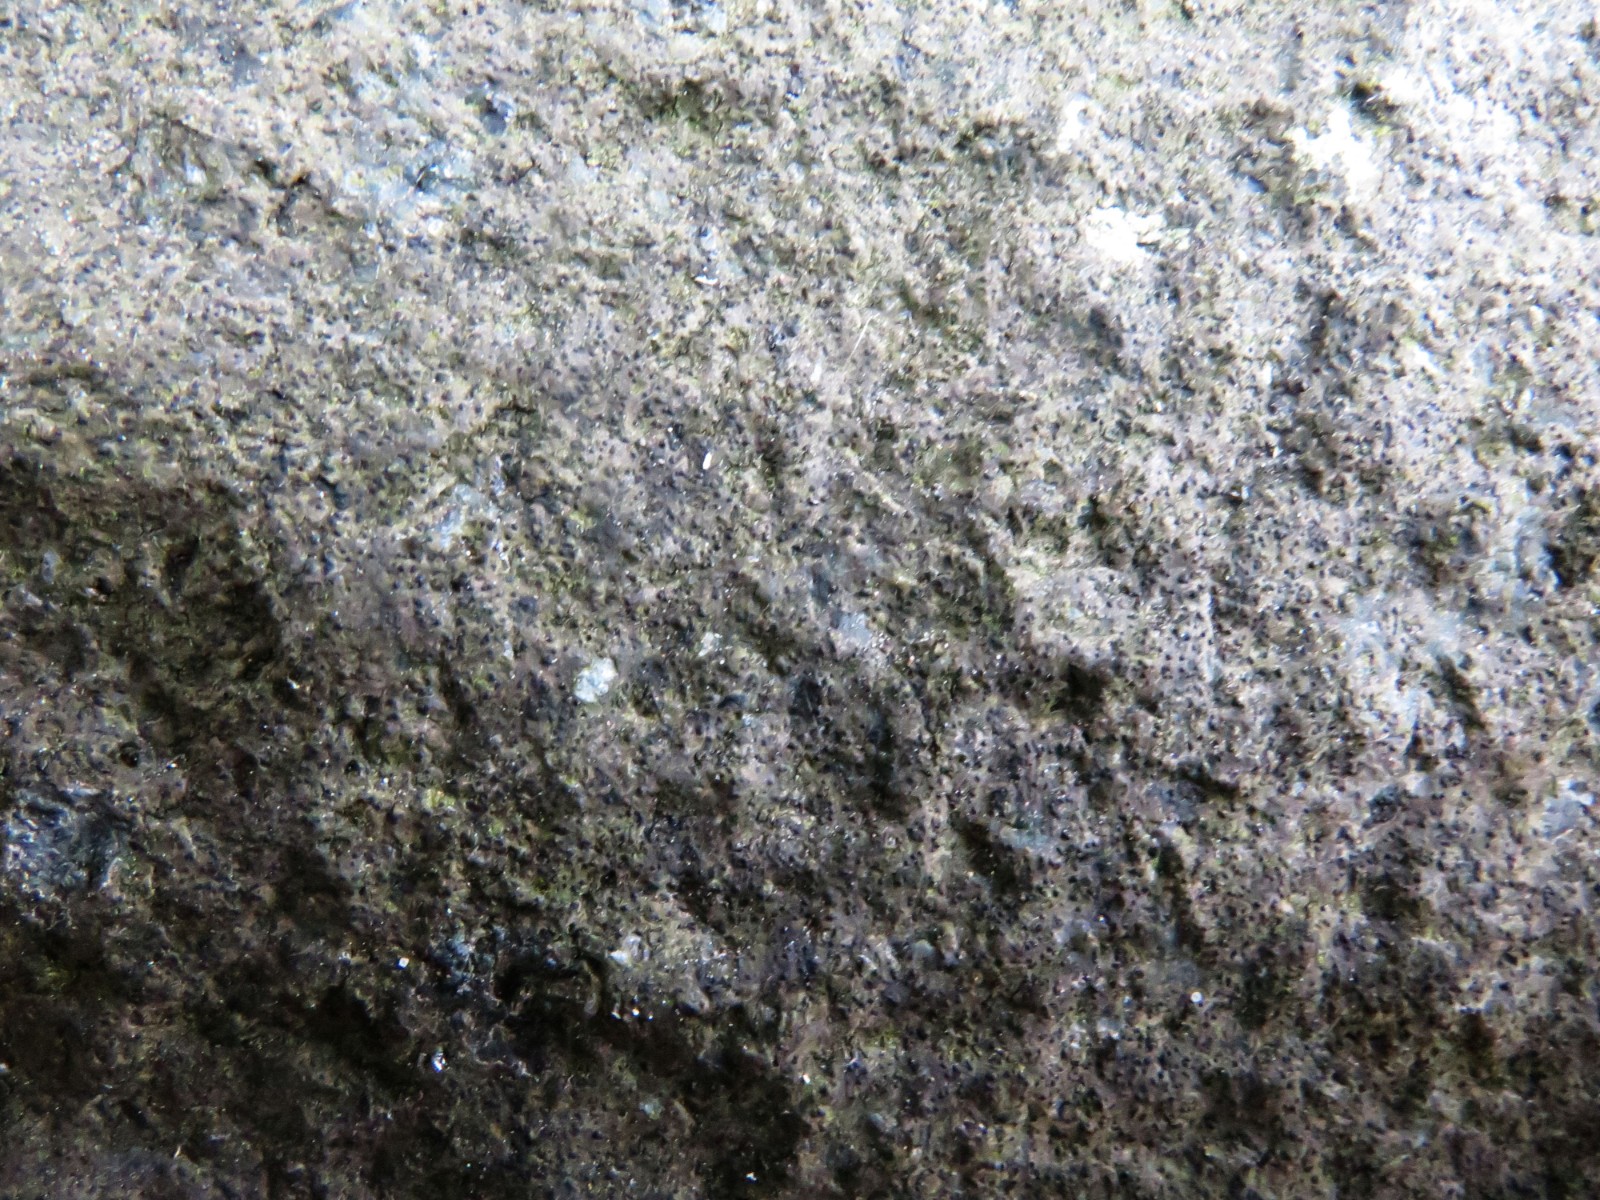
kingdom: Fungi
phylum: Ascomycota
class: Eurotiomycetes
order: Verrucariales
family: Verrucariaceae
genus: Verrucaria
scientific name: Verrucaria nigrescens
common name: sortbrun vortelav
